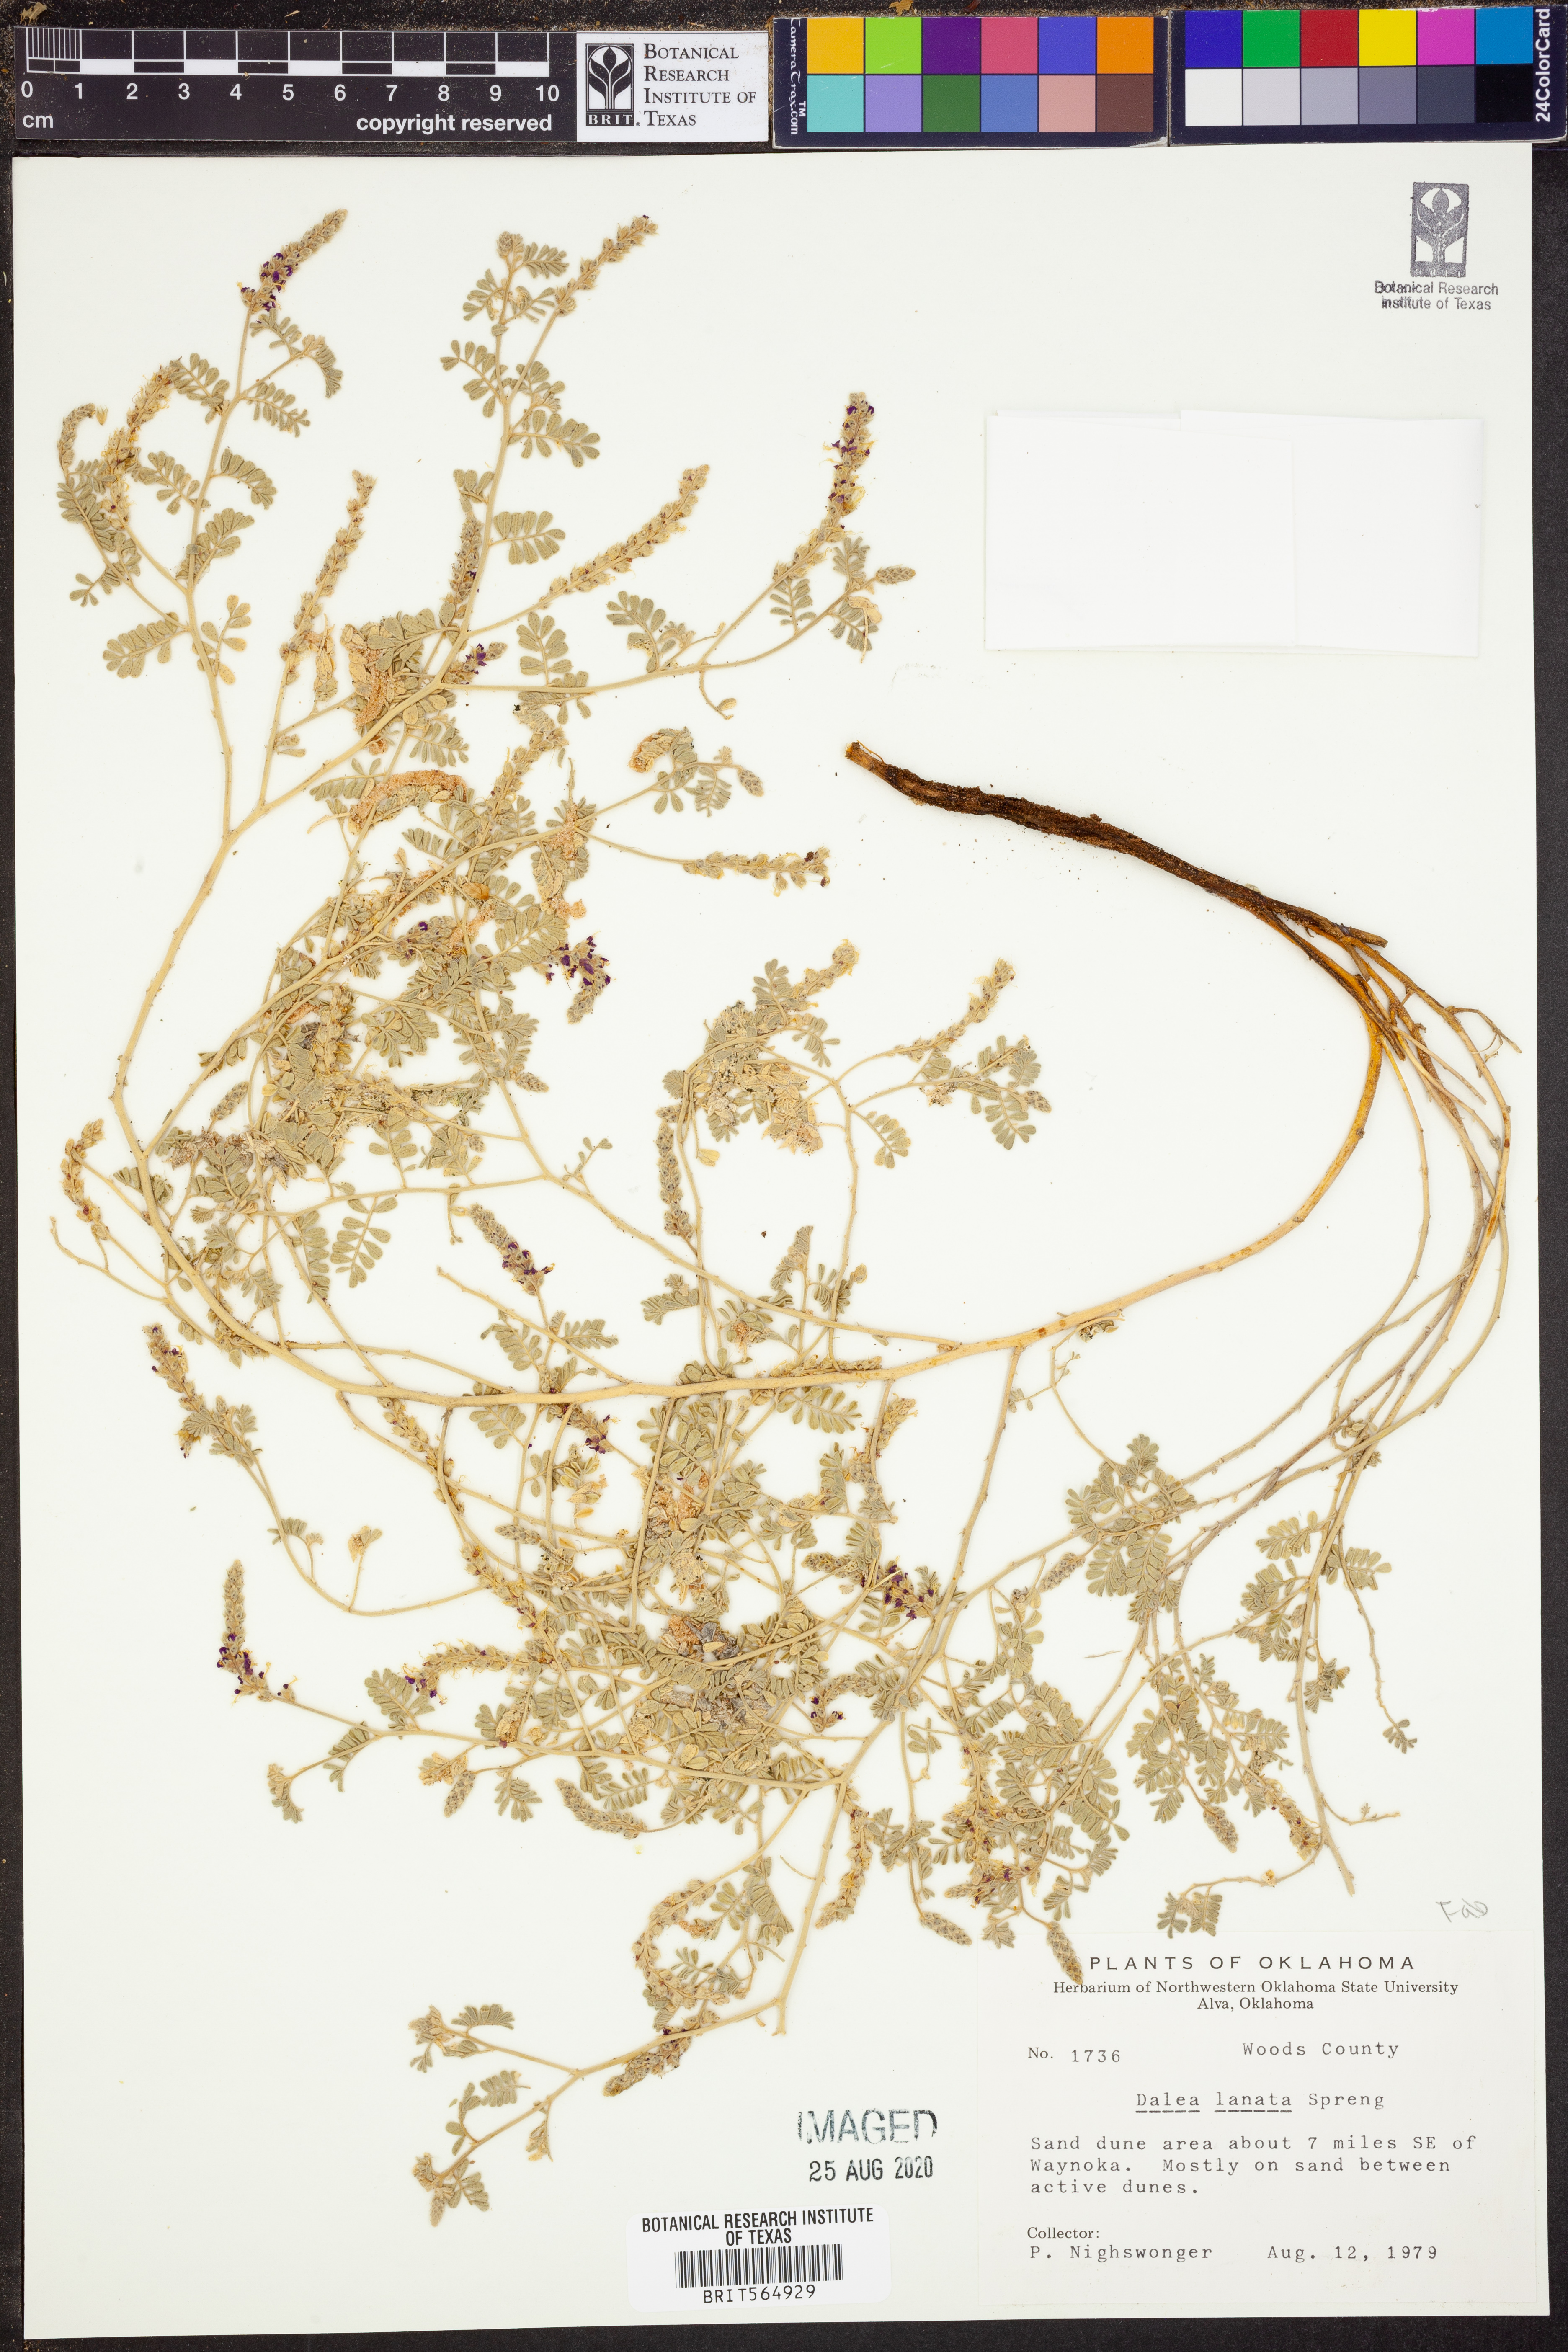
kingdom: Plantae
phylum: Tracheophyta
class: Magnoliopsida
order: Fabales
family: Fabaceae
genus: Dalea
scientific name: Dalea lanata
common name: Woolly dalea
